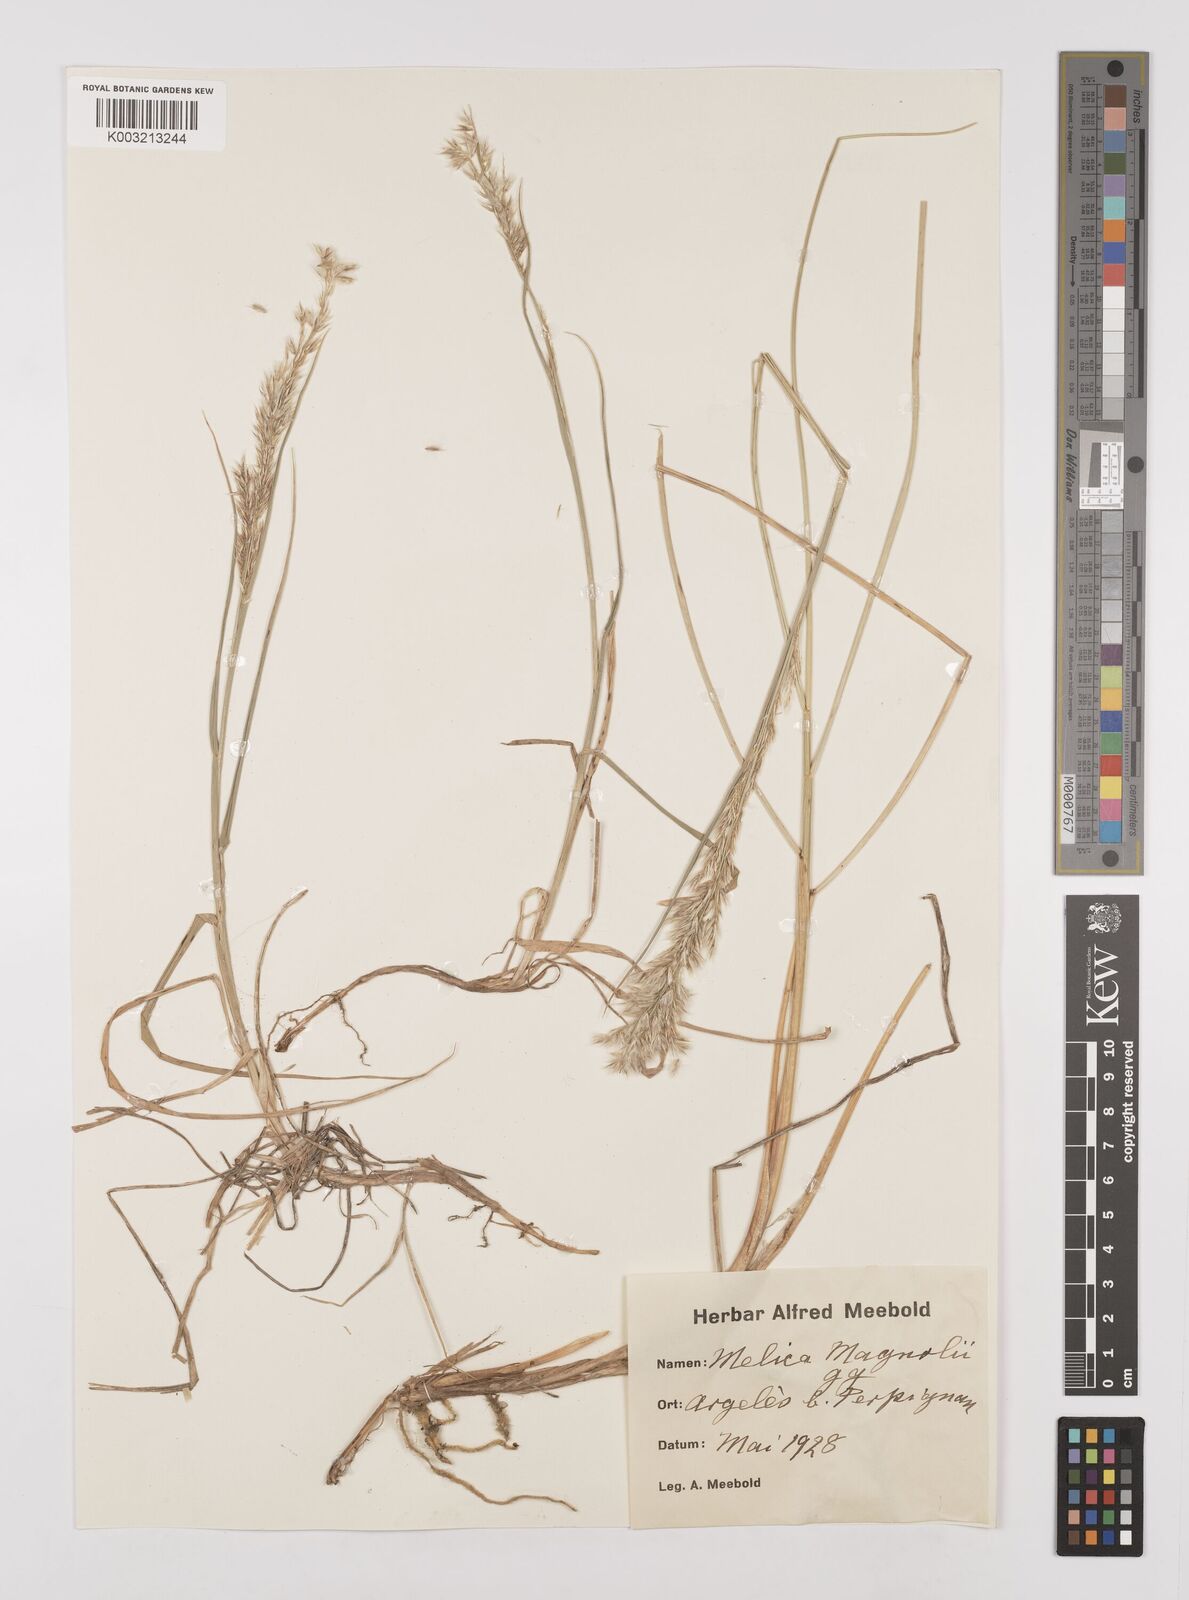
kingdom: Plantae
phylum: Tracheophyta
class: Liliopsida
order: Poales
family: Poaceae
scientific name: Poaceae
